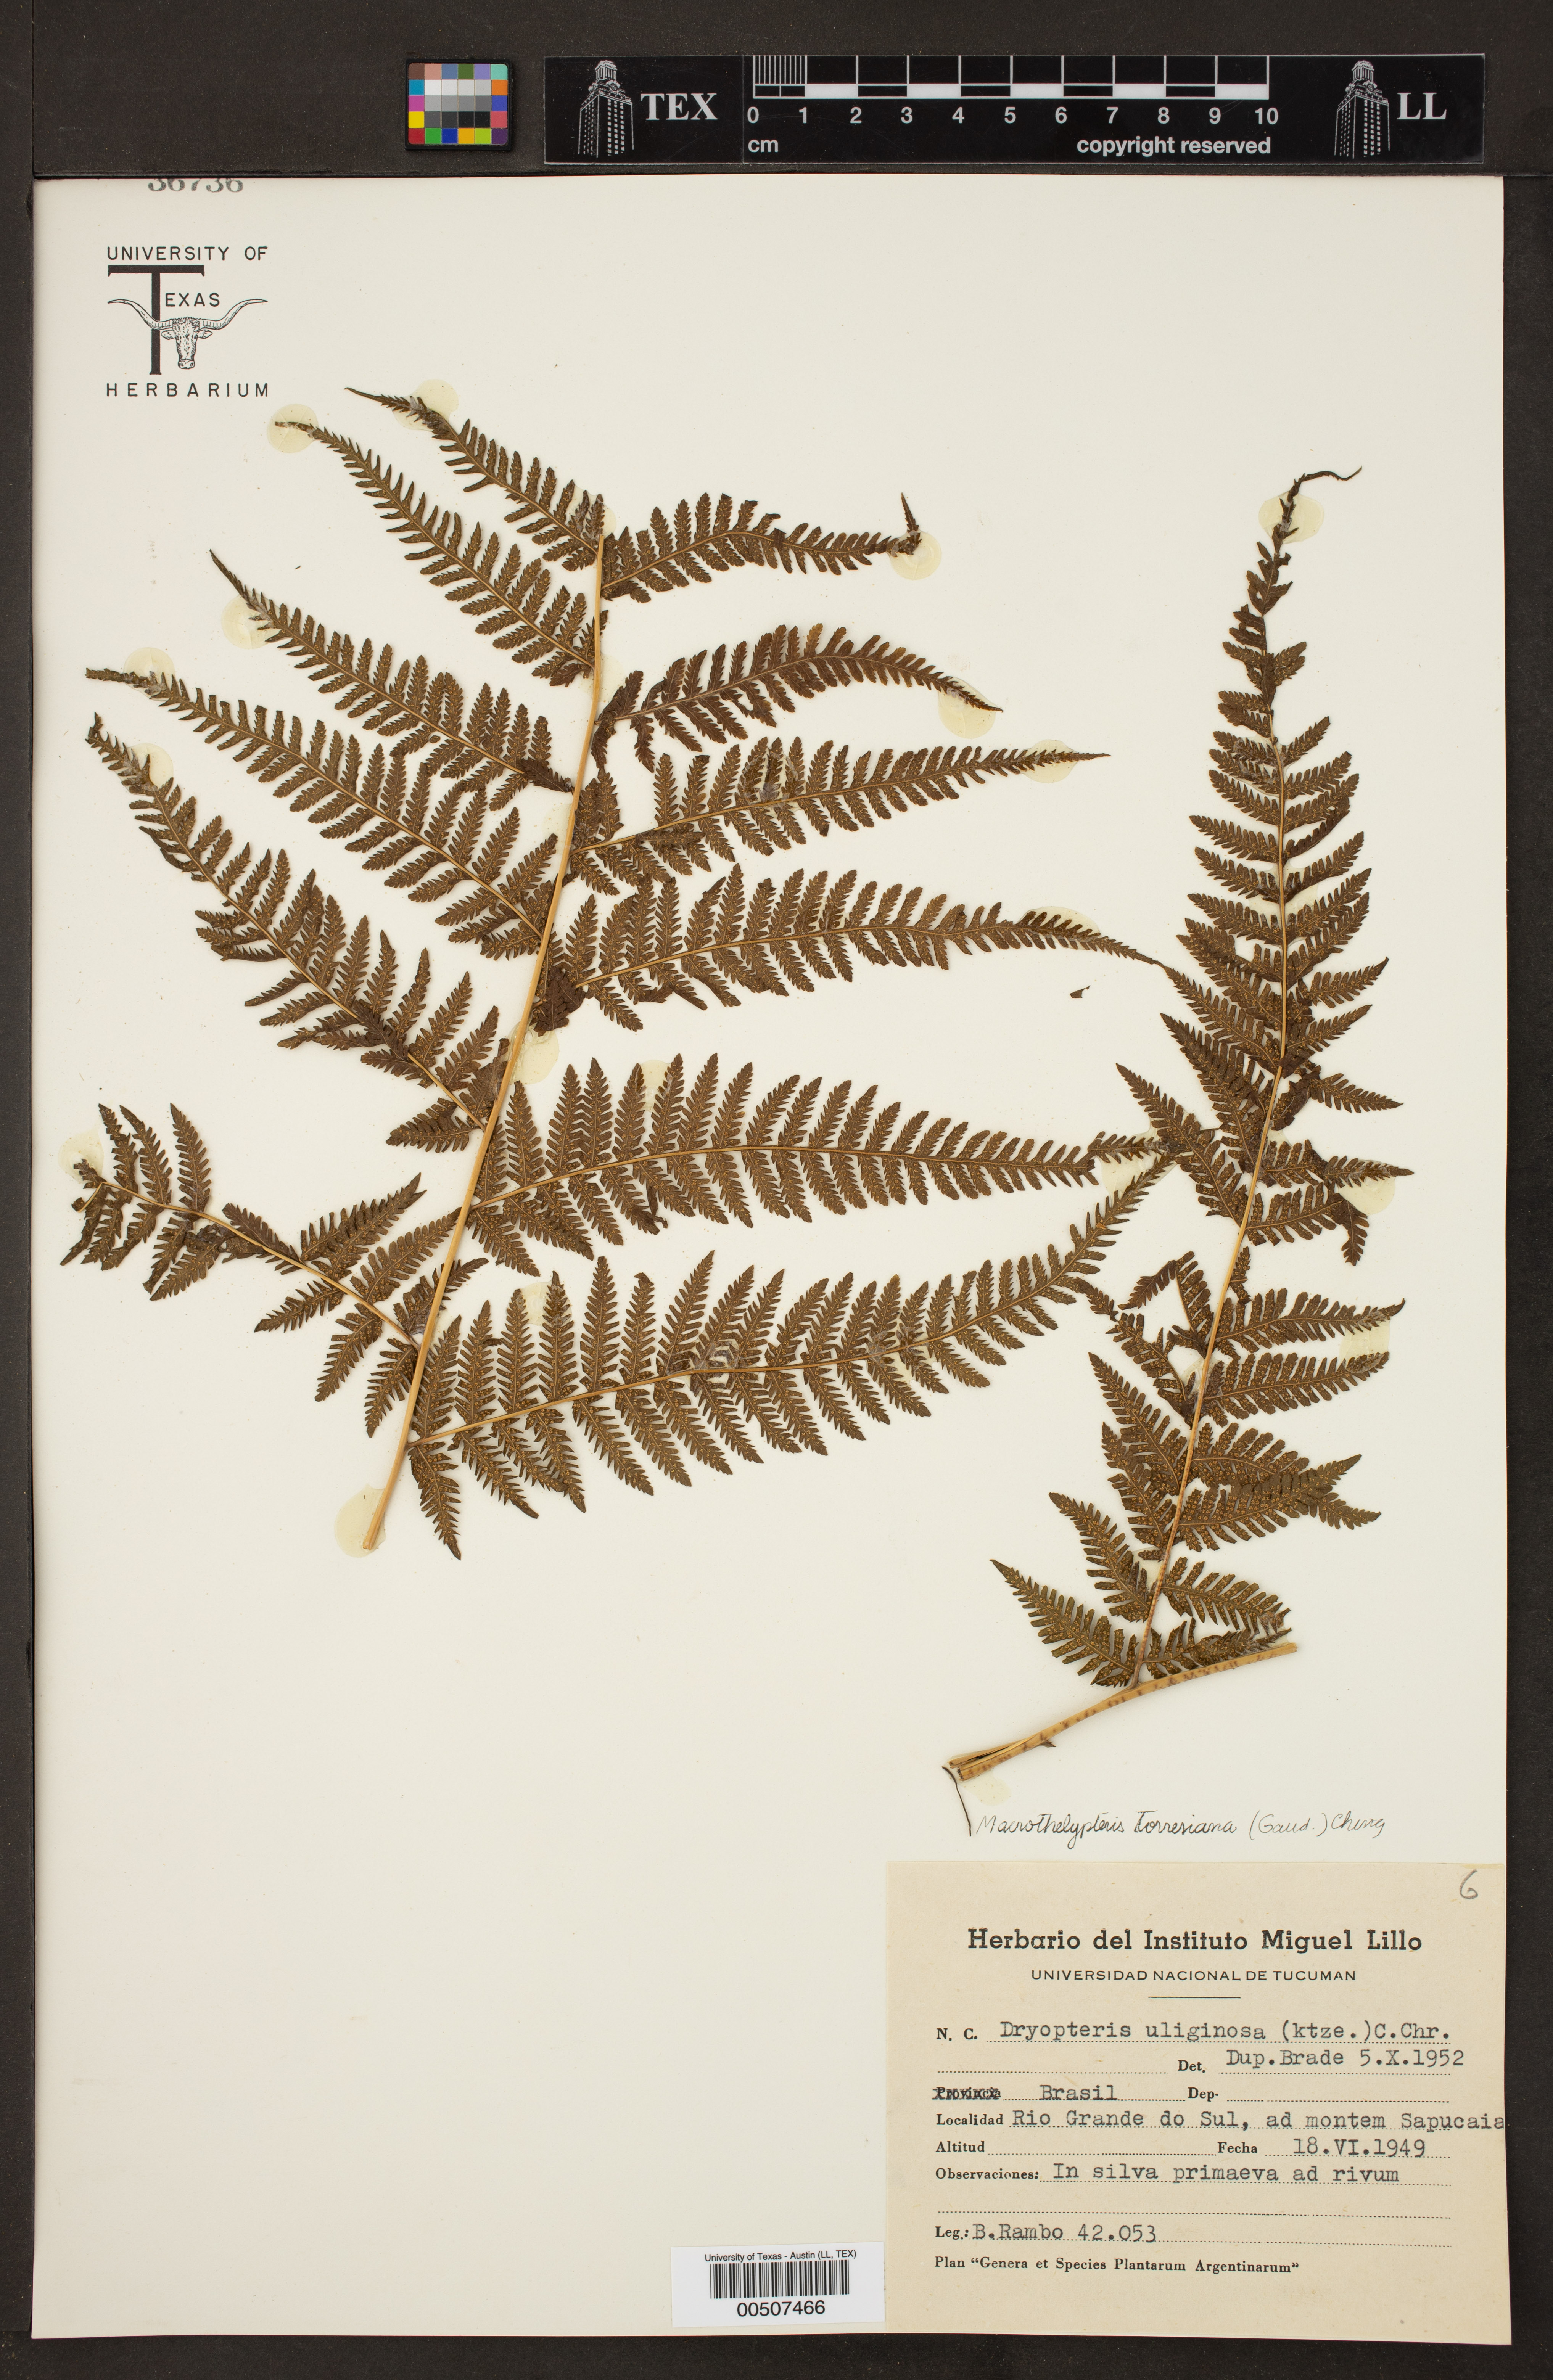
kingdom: Plantae
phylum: Tracheophyta
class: Polypodiopsida
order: Polypodiales
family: Thelypteridaceae
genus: Macrothelypteris
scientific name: Macrothelypteris torresiana
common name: Swordfern
